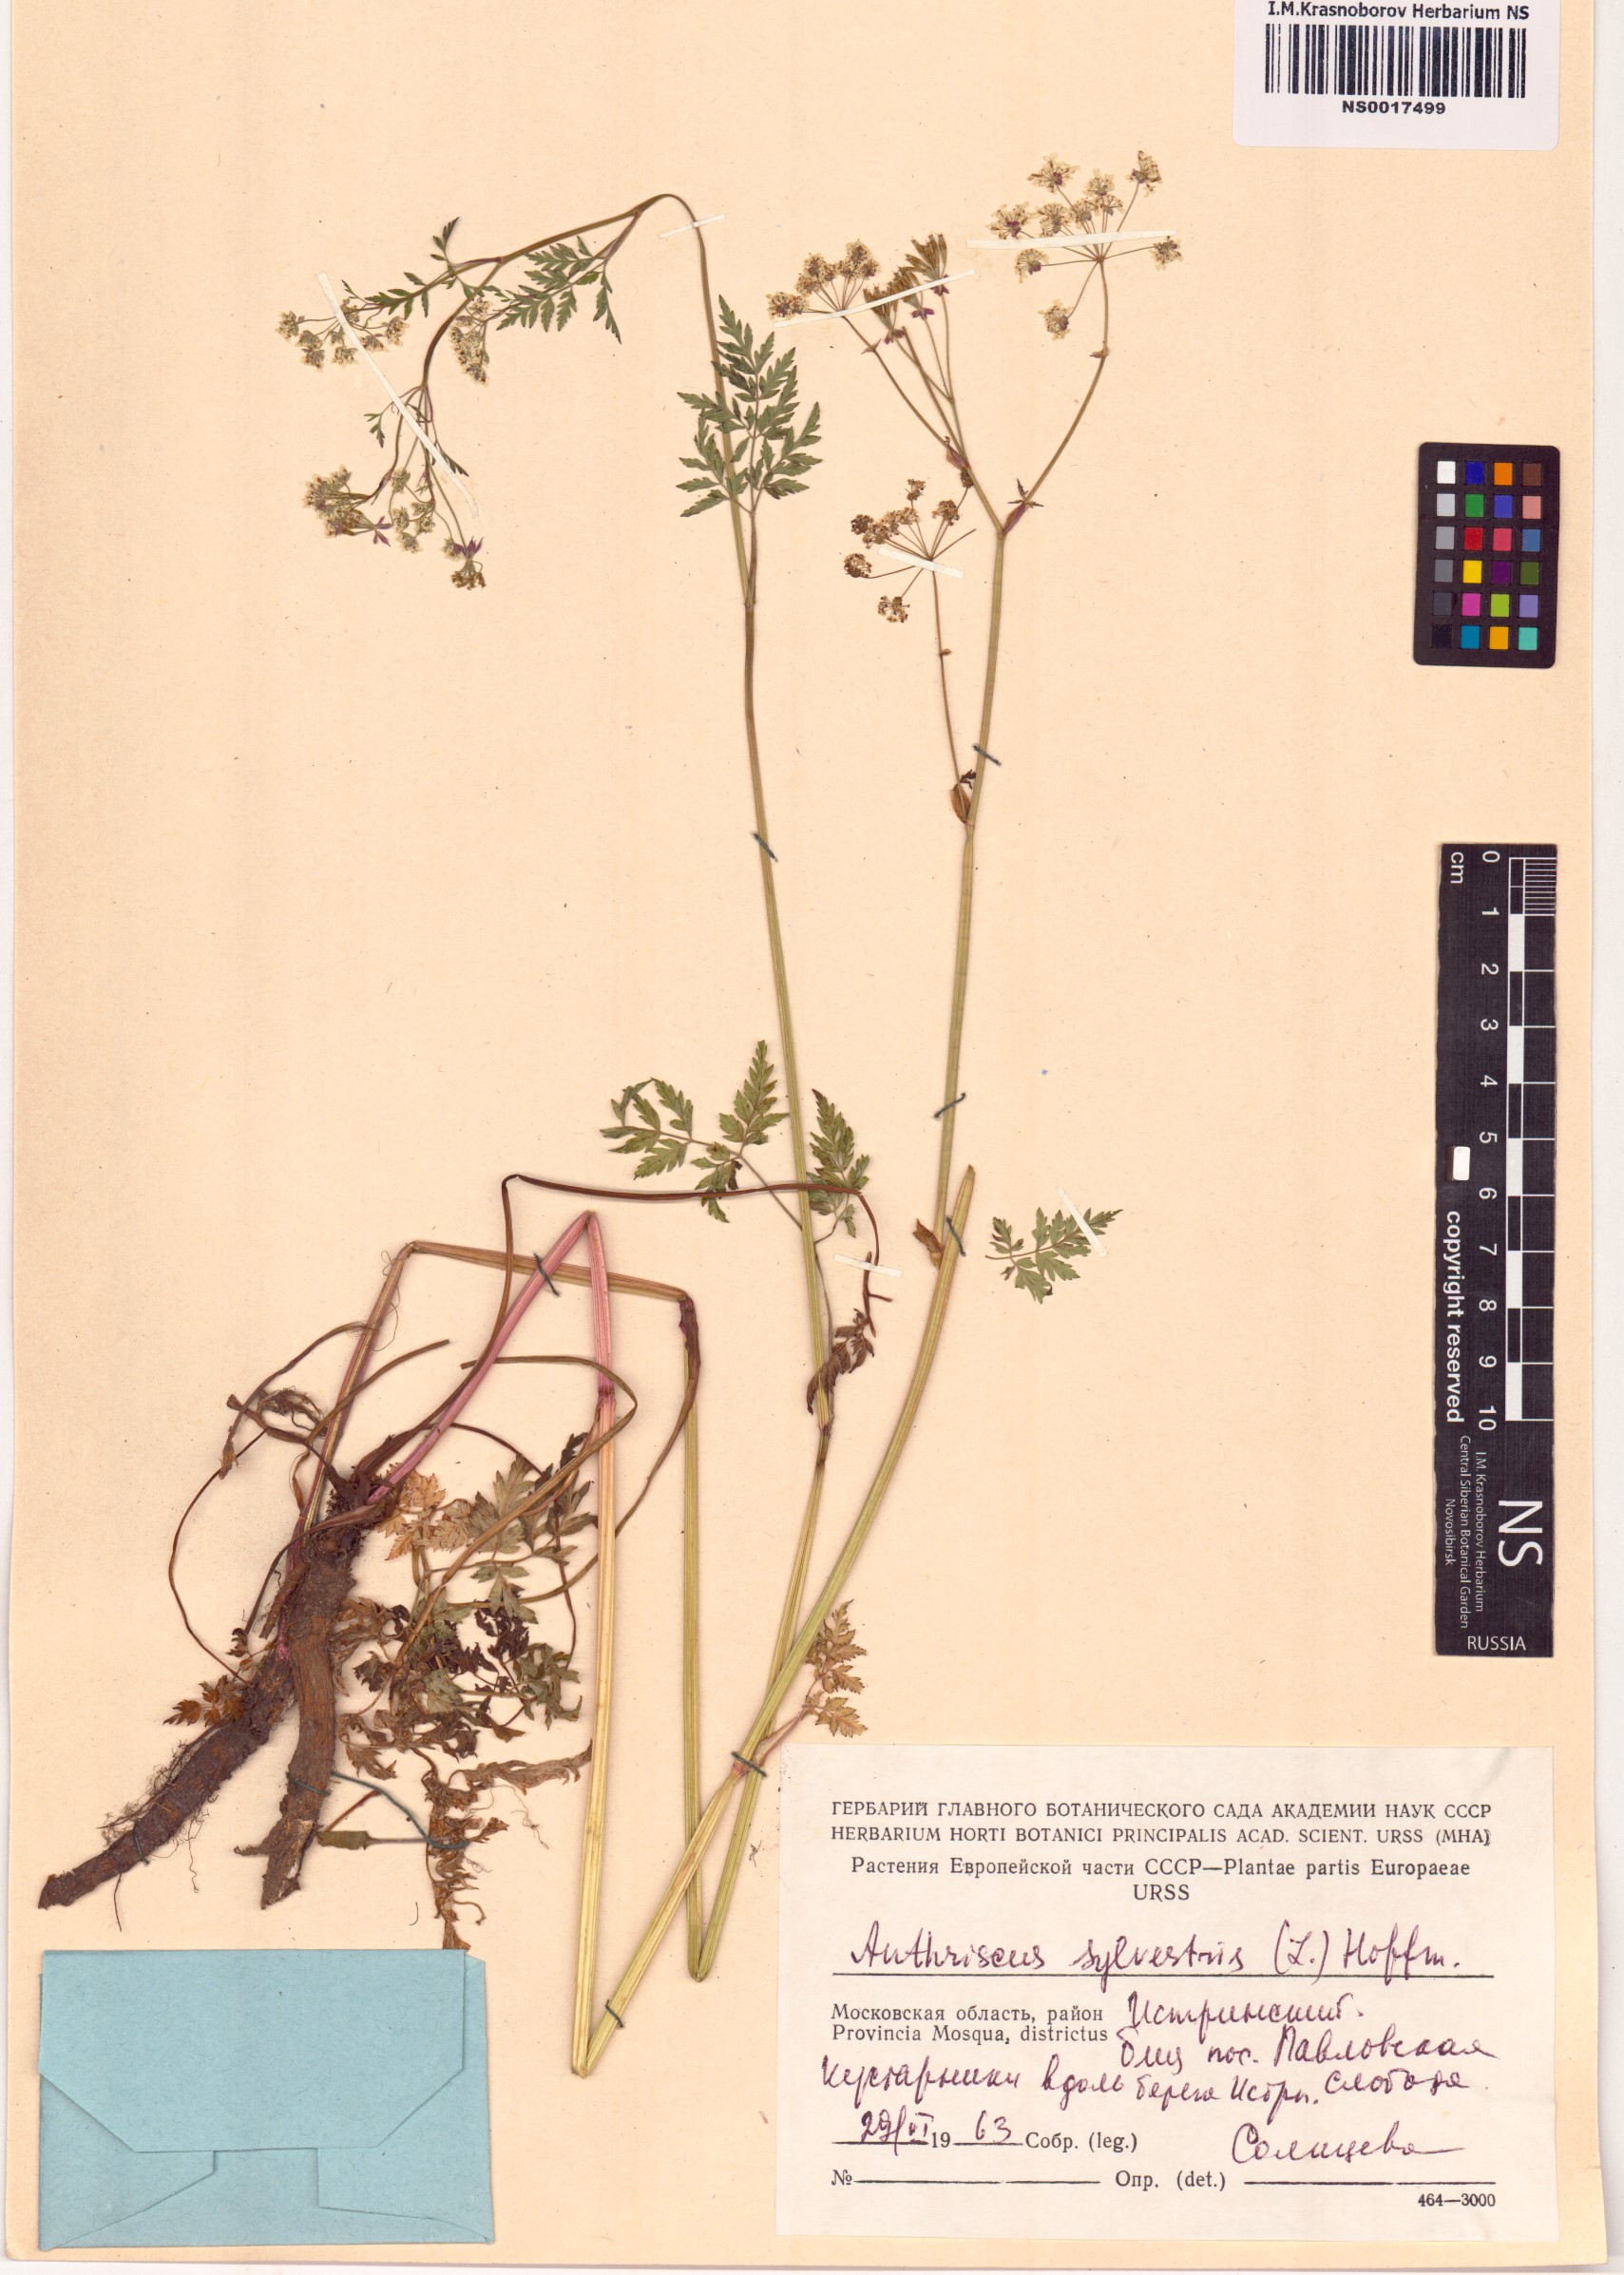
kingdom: Plantae
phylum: Tracheophyta
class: Magnoliopsida
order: Apiales
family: Apiaceae
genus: Anthriscus
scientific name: Anthriscus sylvestris
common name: Cow parsley
